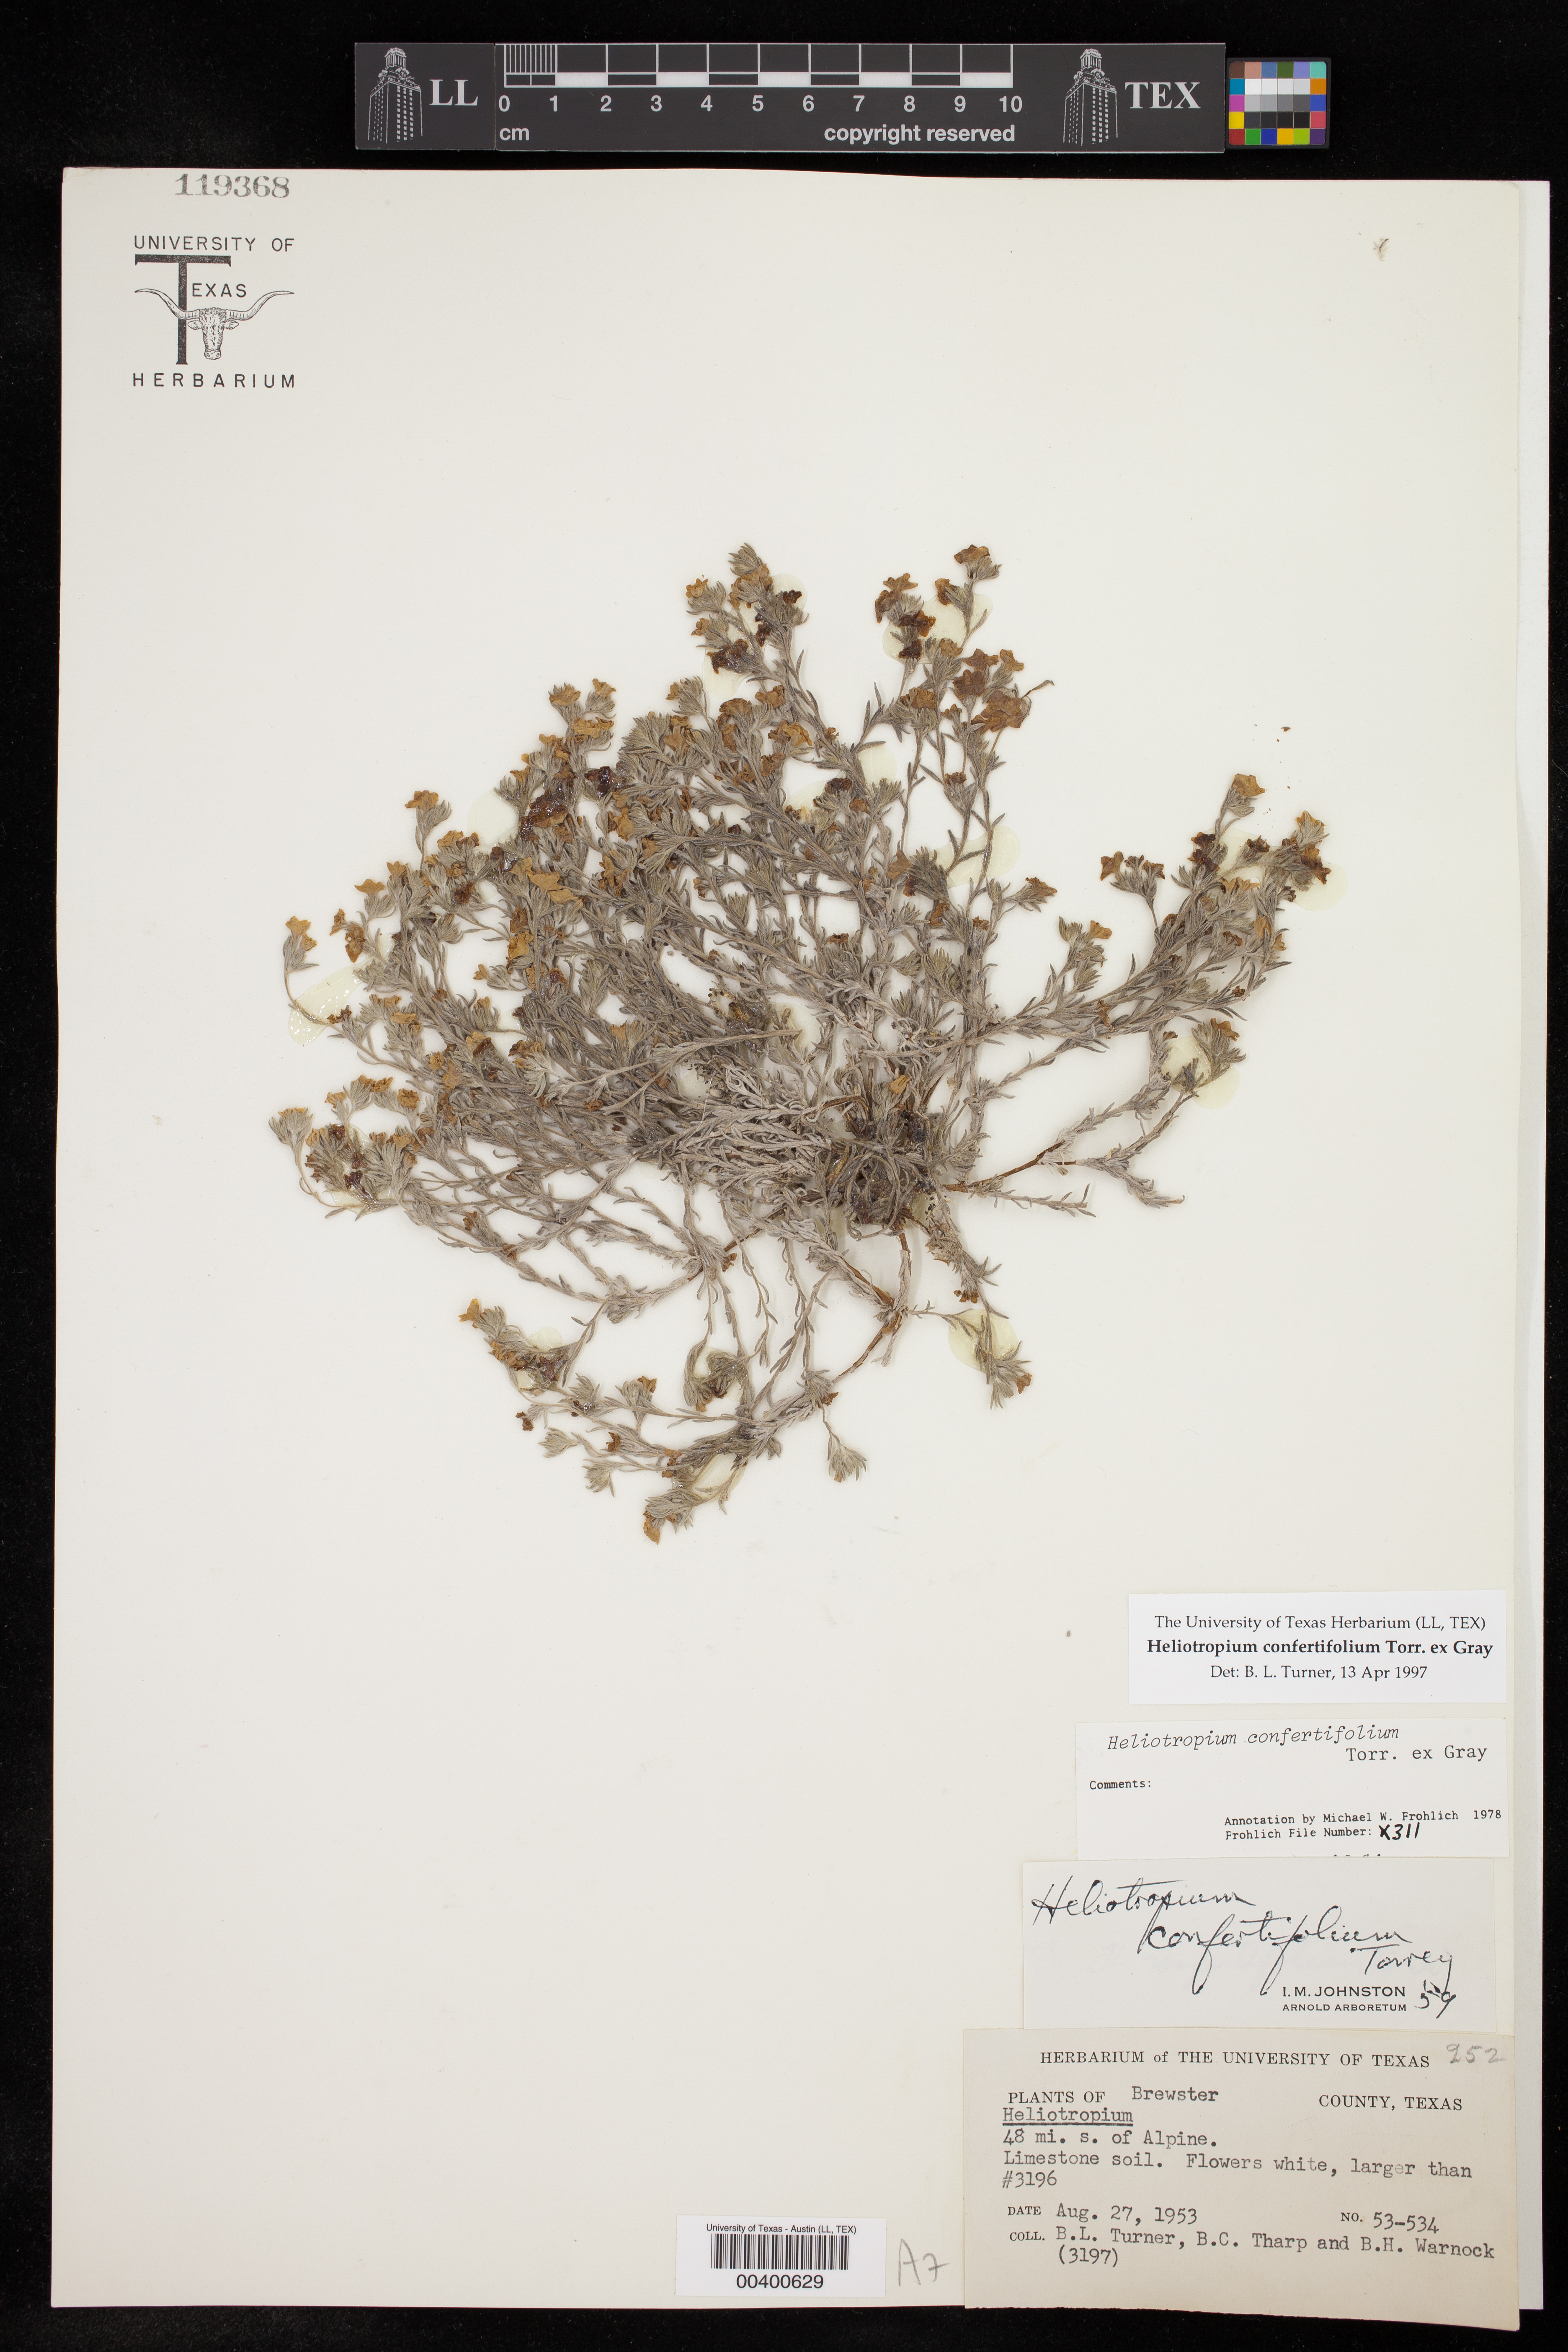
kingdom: Plantae
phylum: Tracheophyta
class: Magnoliopsida
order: Boraginales
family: Heliotropiaceae
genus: Euploca
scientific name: Euploca confertifolia
